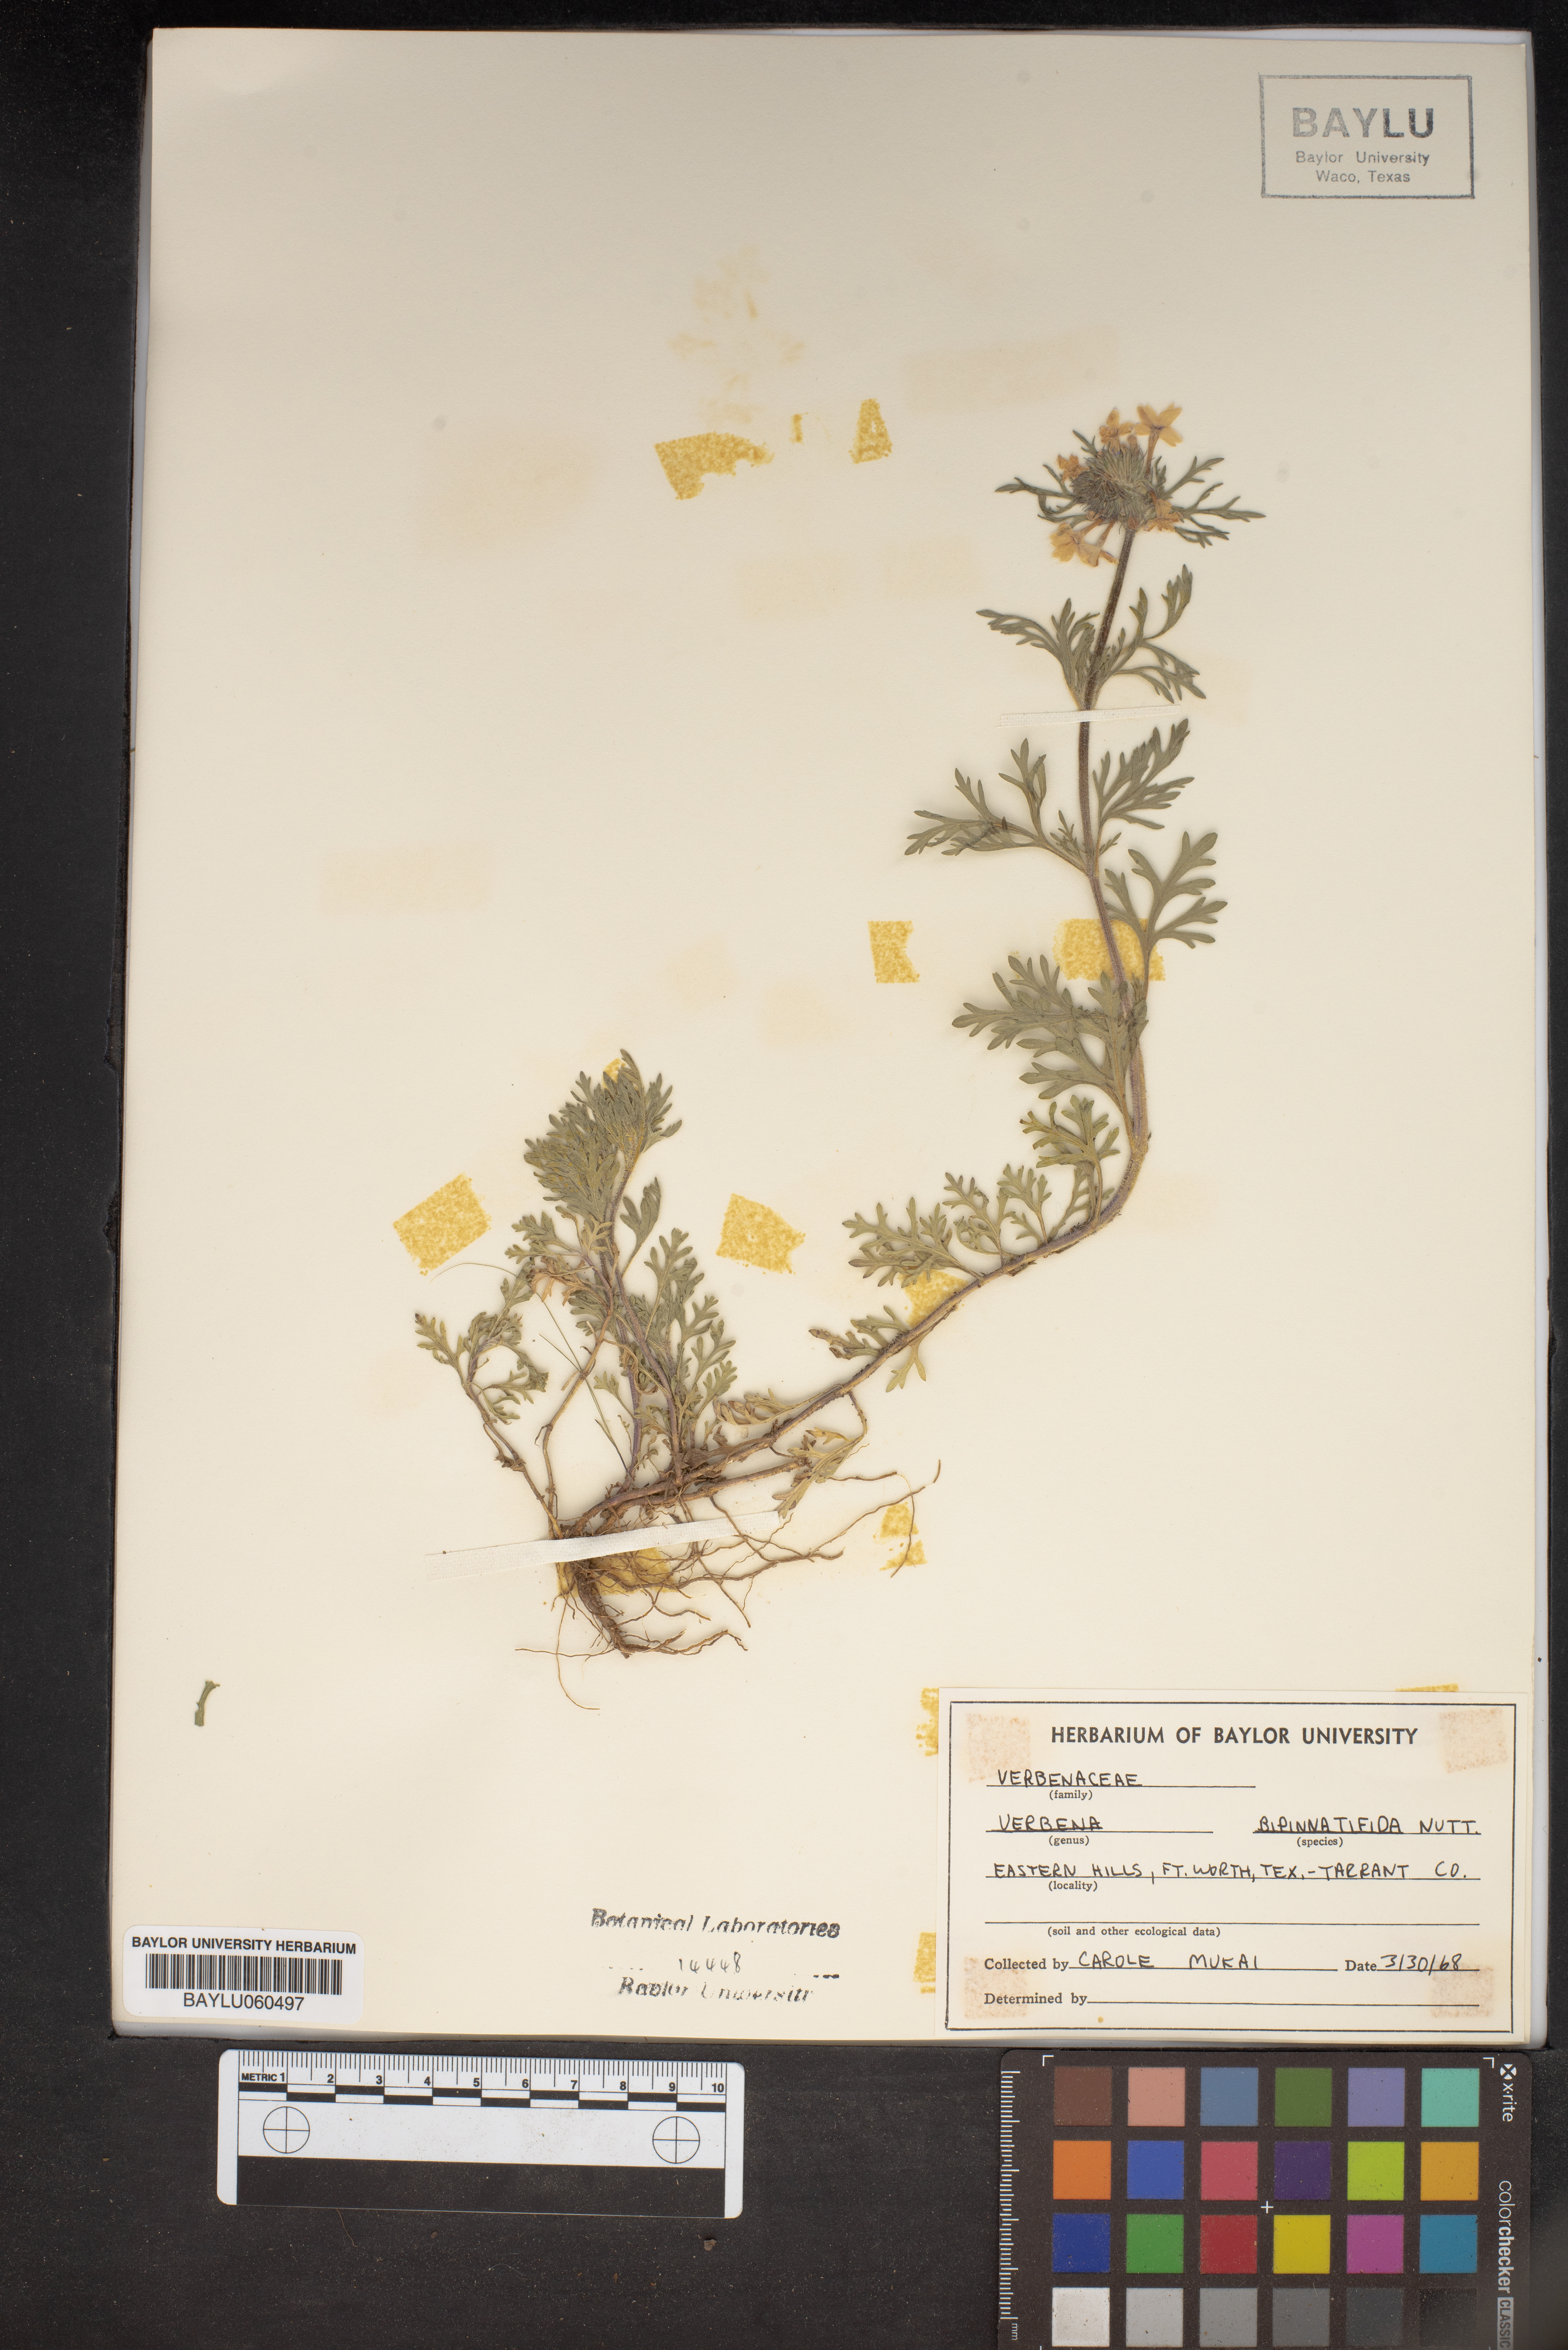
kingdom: Plantae
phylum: Tracheophyta
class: Magnoliopsida
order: Lamiales
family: Verbenaceae
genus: Verbena
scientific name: Verbena bipinnatifida
